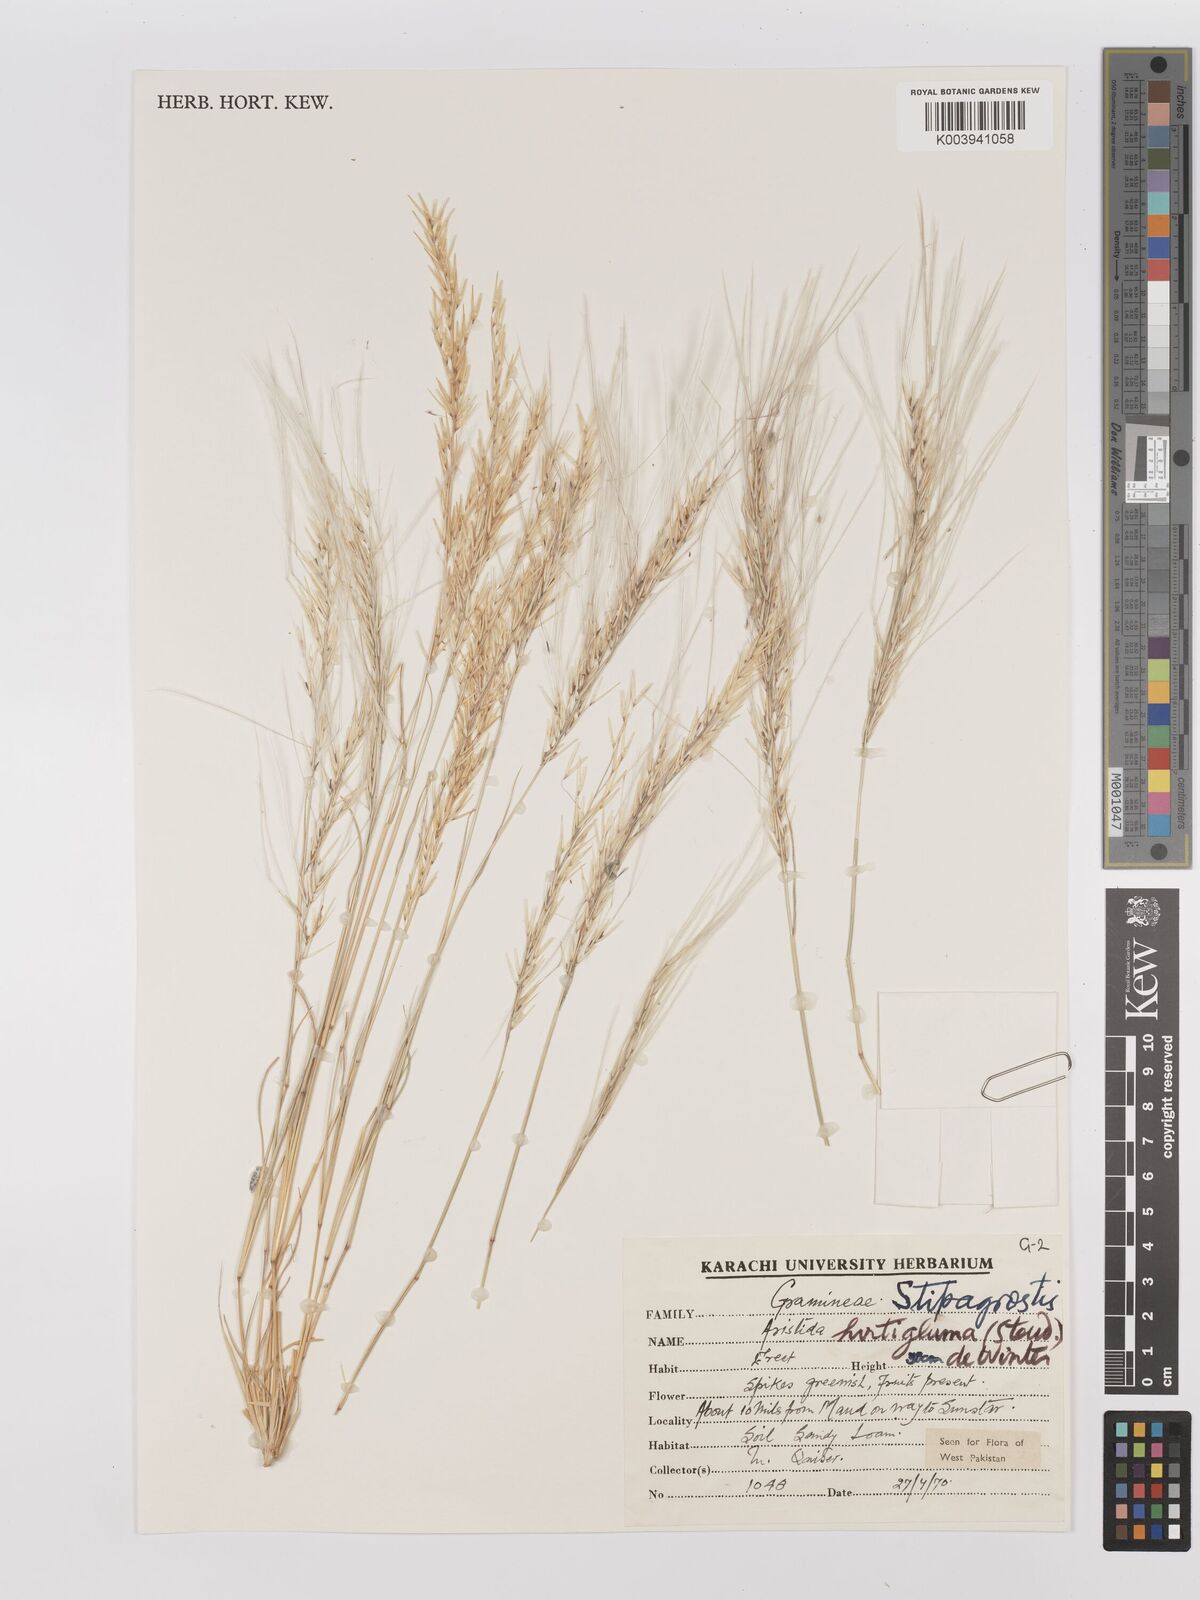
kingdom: Plantae
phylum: Tracheophyta
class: Liliopsida
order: Poales
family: Poaceae
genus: Stipagrostis
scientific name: Stipagrostis hirtigluma
